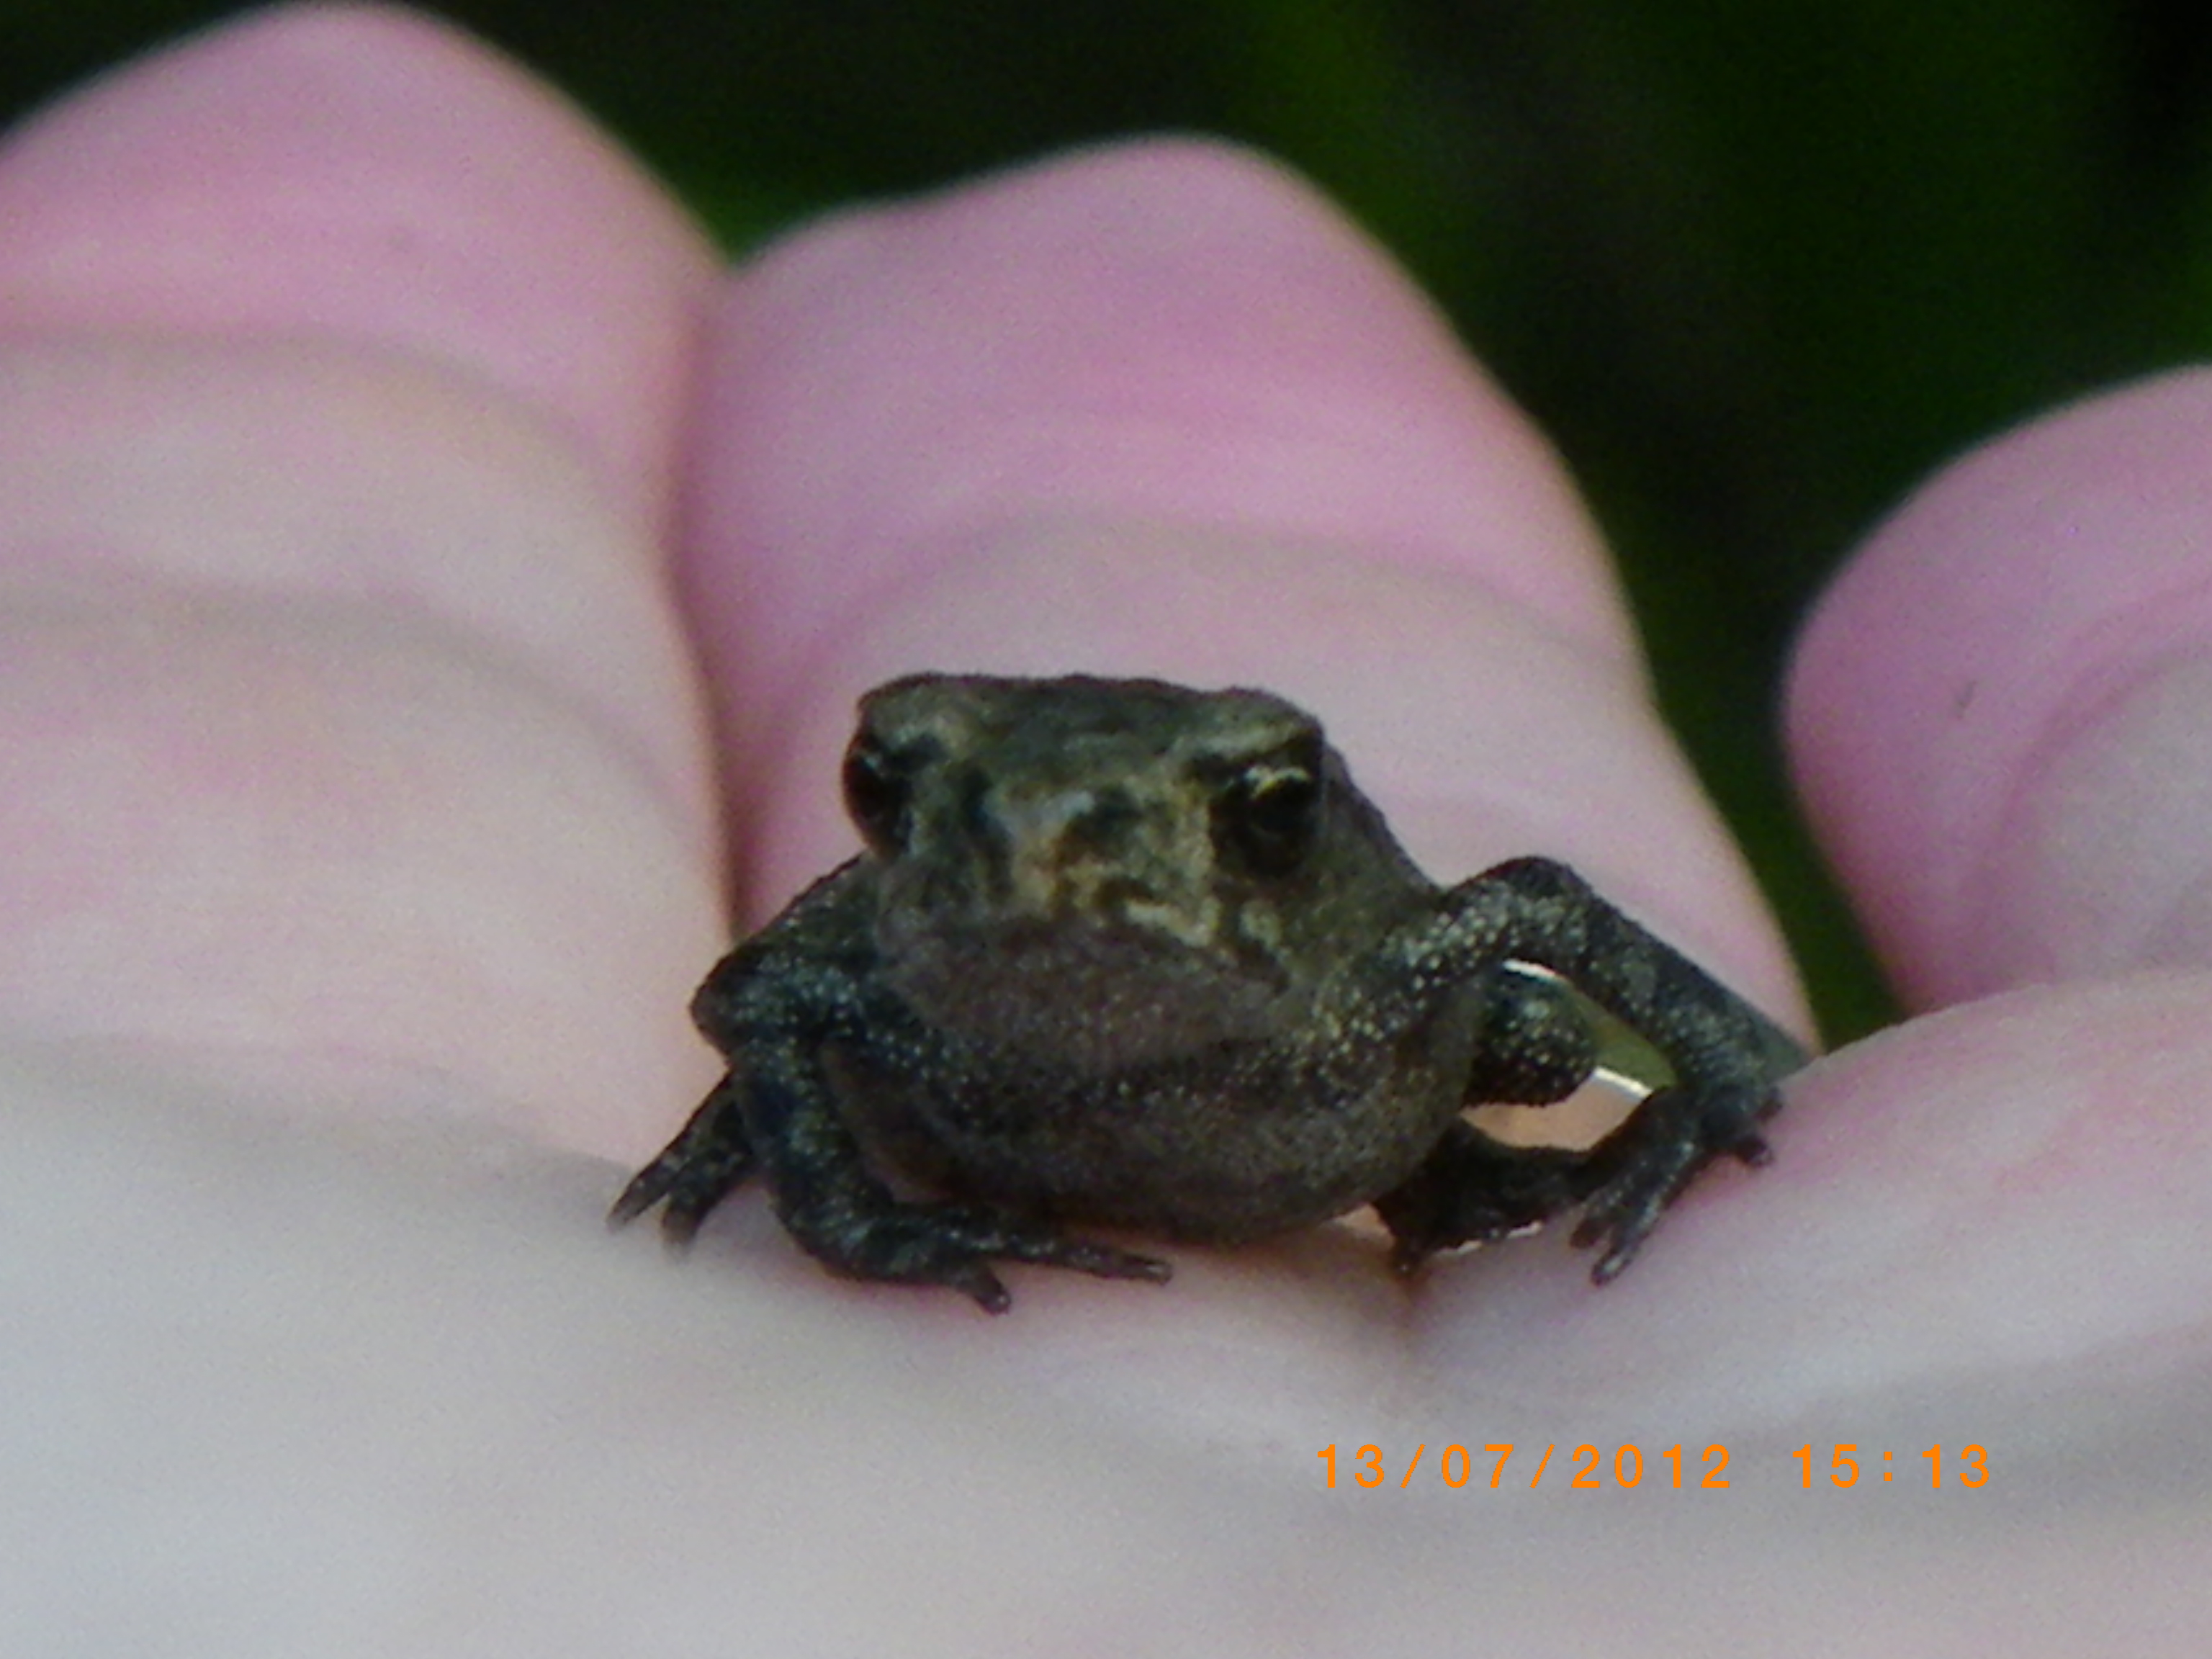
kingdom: Animalia
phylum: Chordata
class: Amphibia
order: Anura
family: Bufonidae
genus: Bufo
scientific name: Bufo bufo
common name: Common toad
